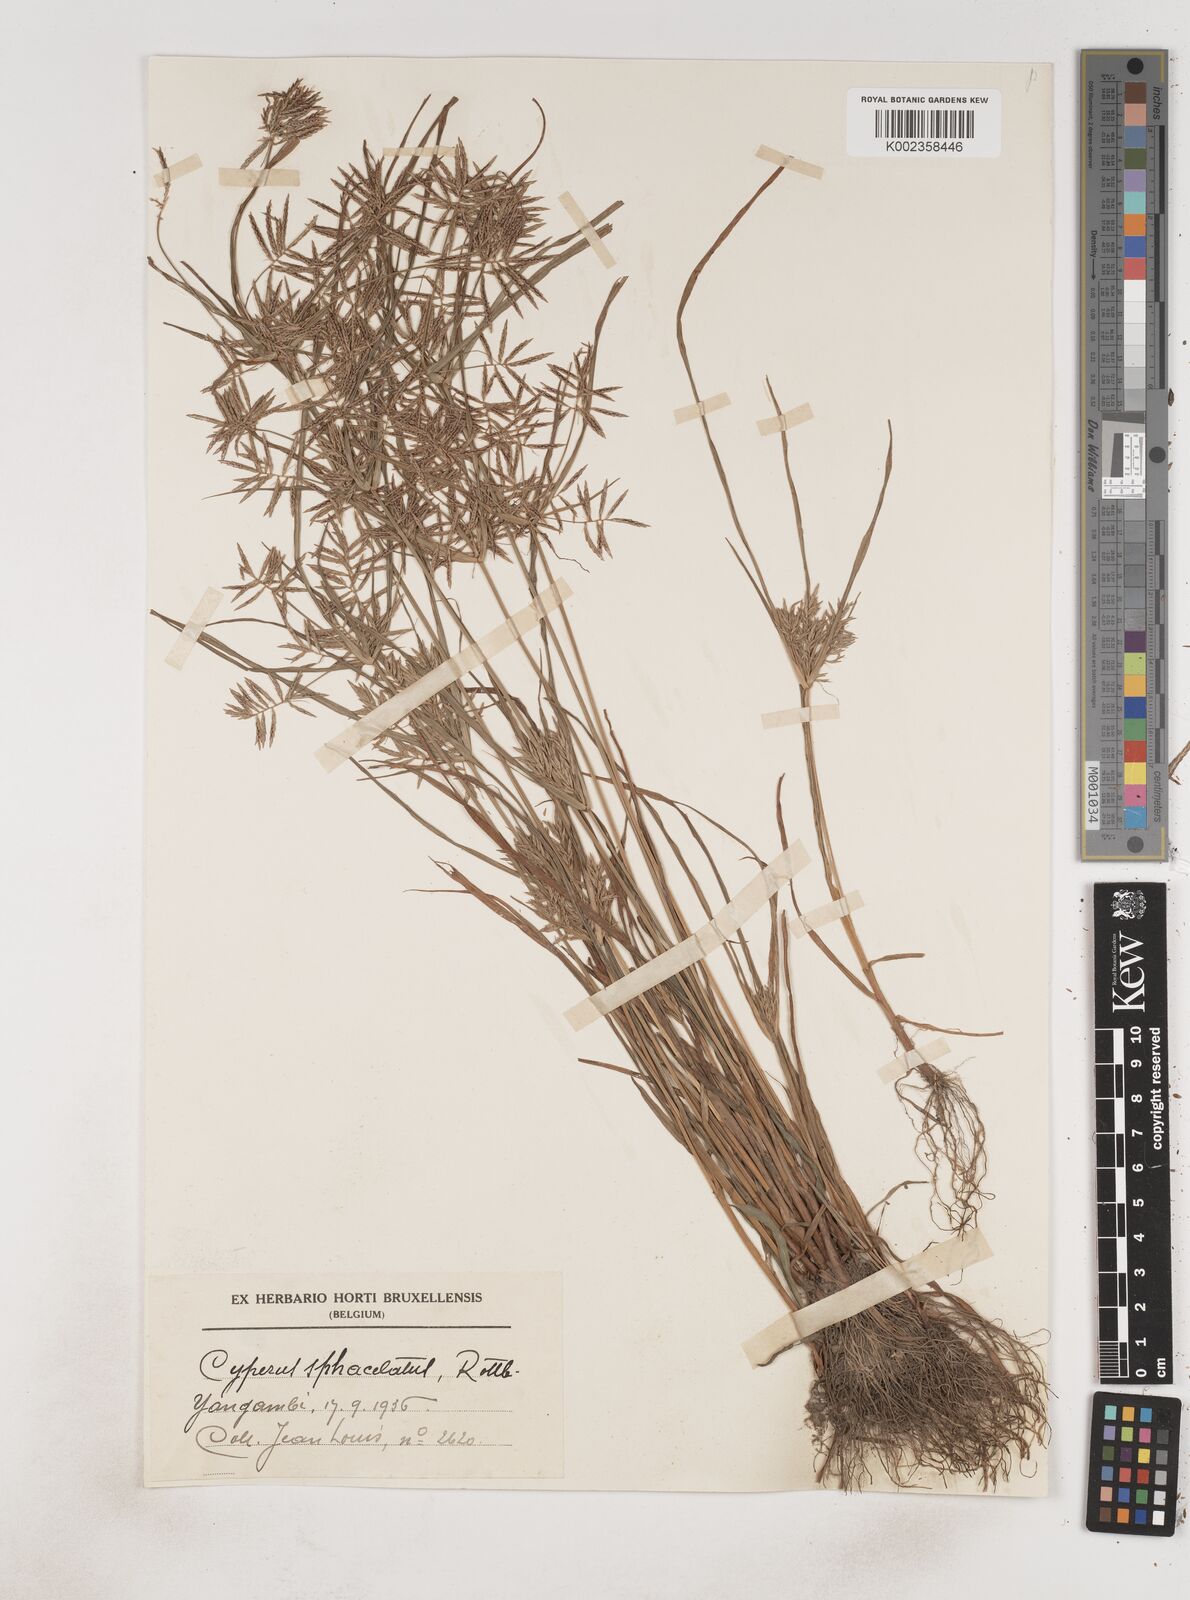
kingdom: Plantae
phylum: Tracheophyta
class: Liliopsida
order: Poales
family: Cyperaceae
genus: Cyperus
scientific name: Cyperus sphacelatus
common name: Roadside flatsedge
